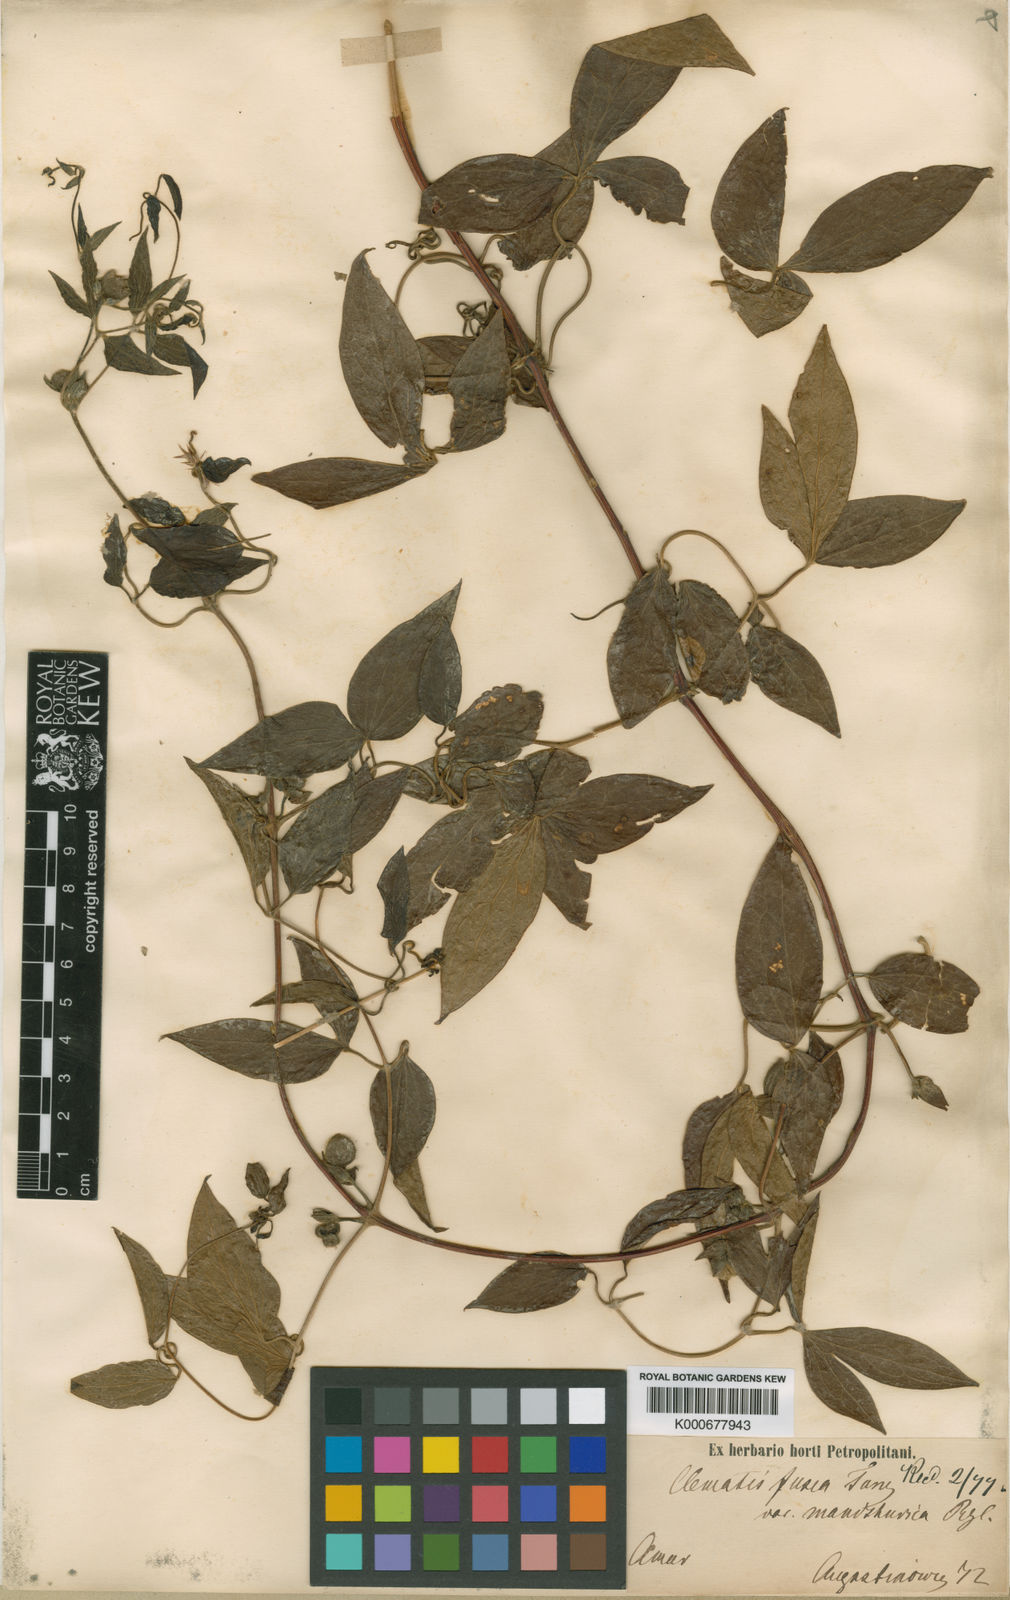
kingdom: Plantae
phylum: Tracheophyta
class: Magnoliopsida
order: Ranunculales
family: Ranunculaceae
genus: Clematis
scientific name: Clematis fusca
